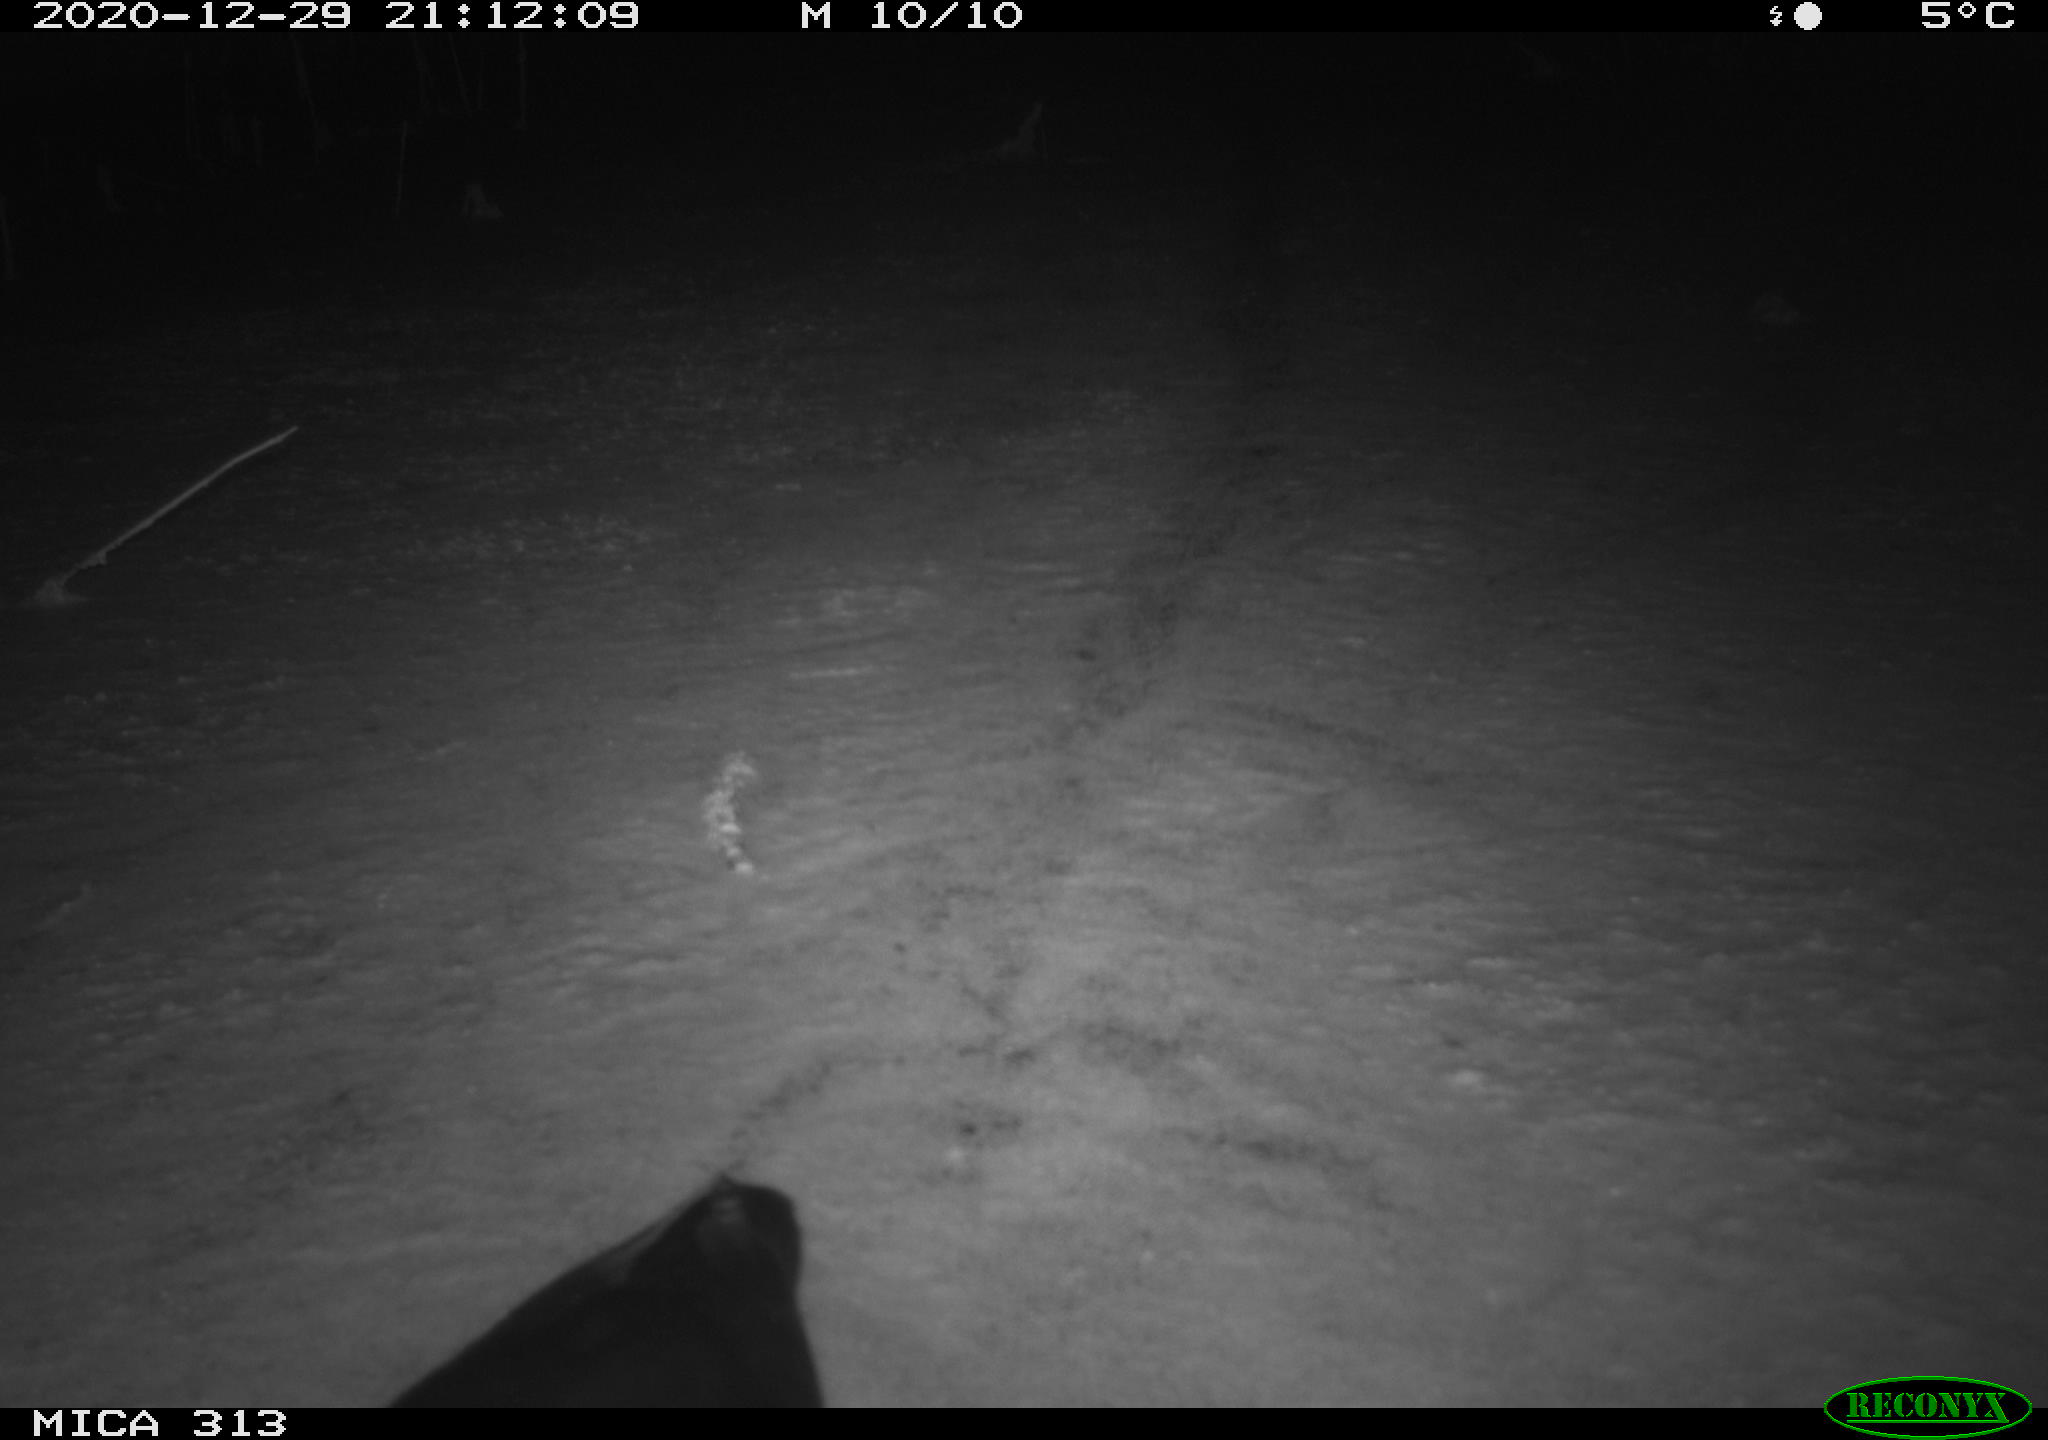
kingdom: Animalia
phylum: Chordata
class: Aves
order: Gruiformes
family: Rallidae
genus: Fulica
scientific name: Fulica atra
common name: Eurasian coot
